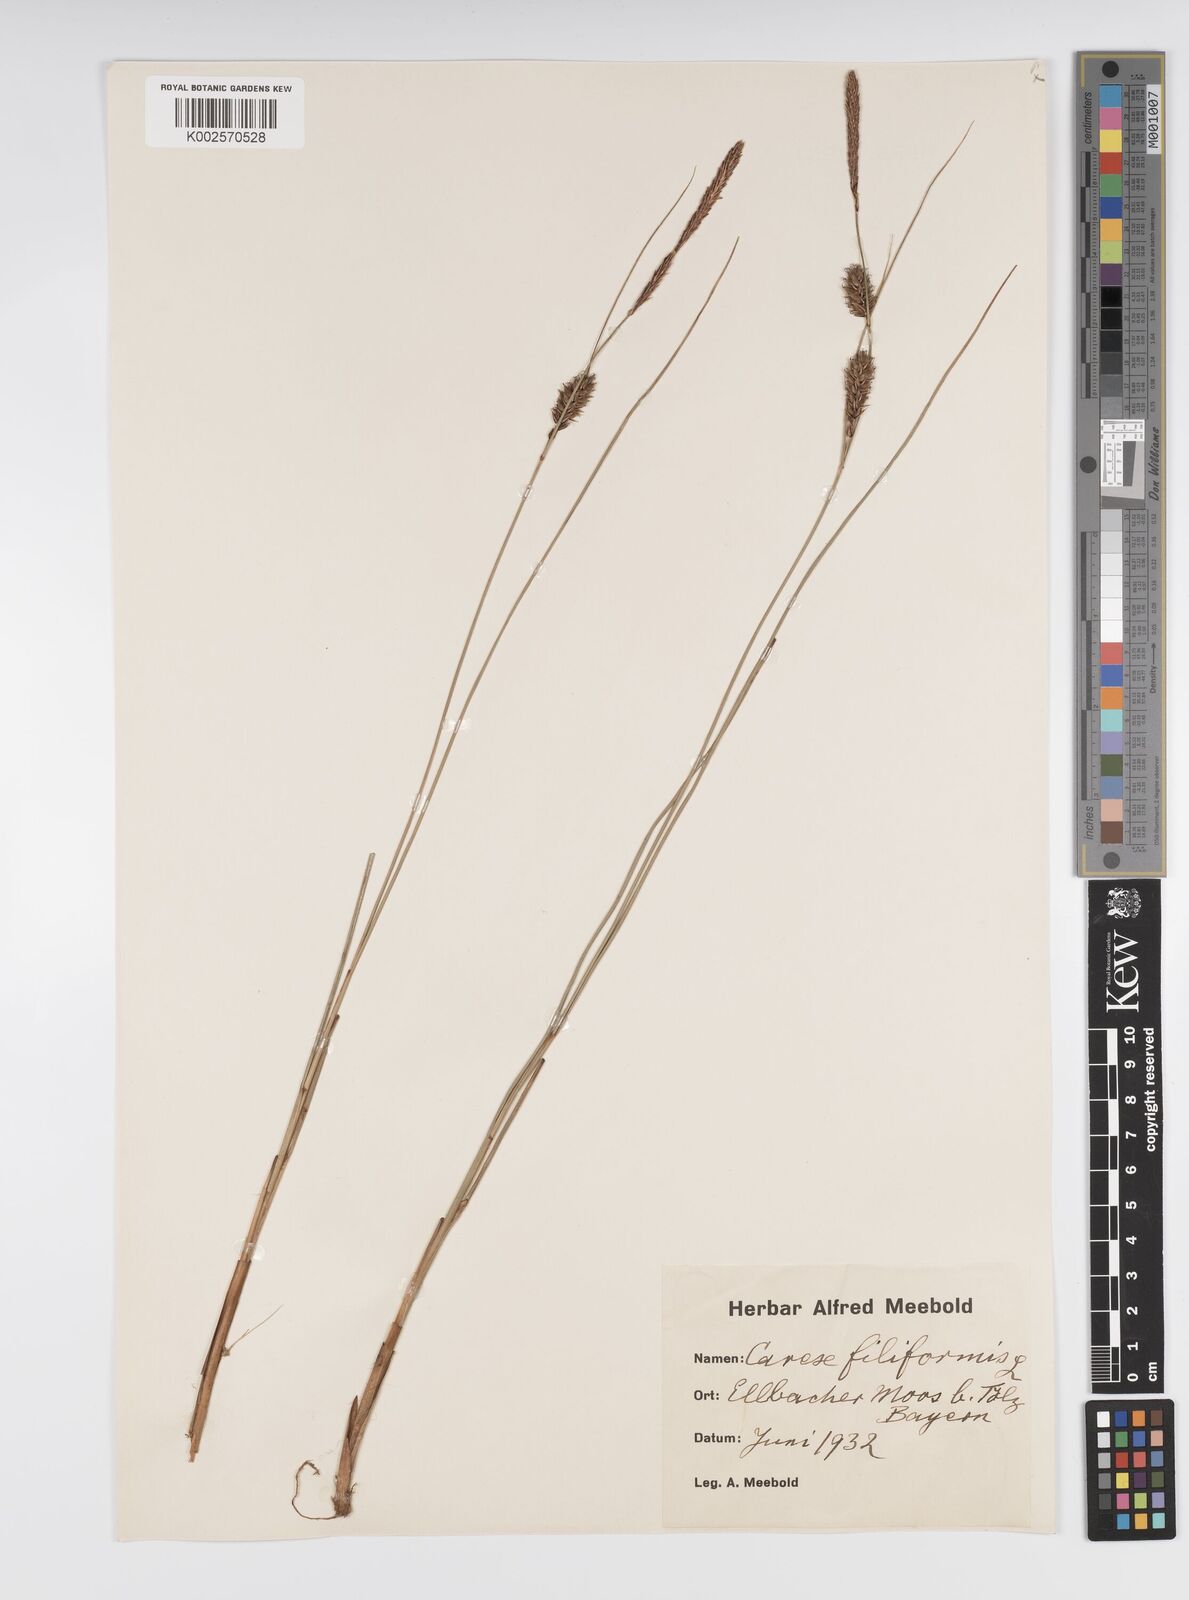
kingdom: Plantae
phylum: Tracheophyta
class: Liliopsida
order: Poales
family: Cyperaceae
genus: Carex
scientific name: Carex montana
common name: Soft-leaved sedge
